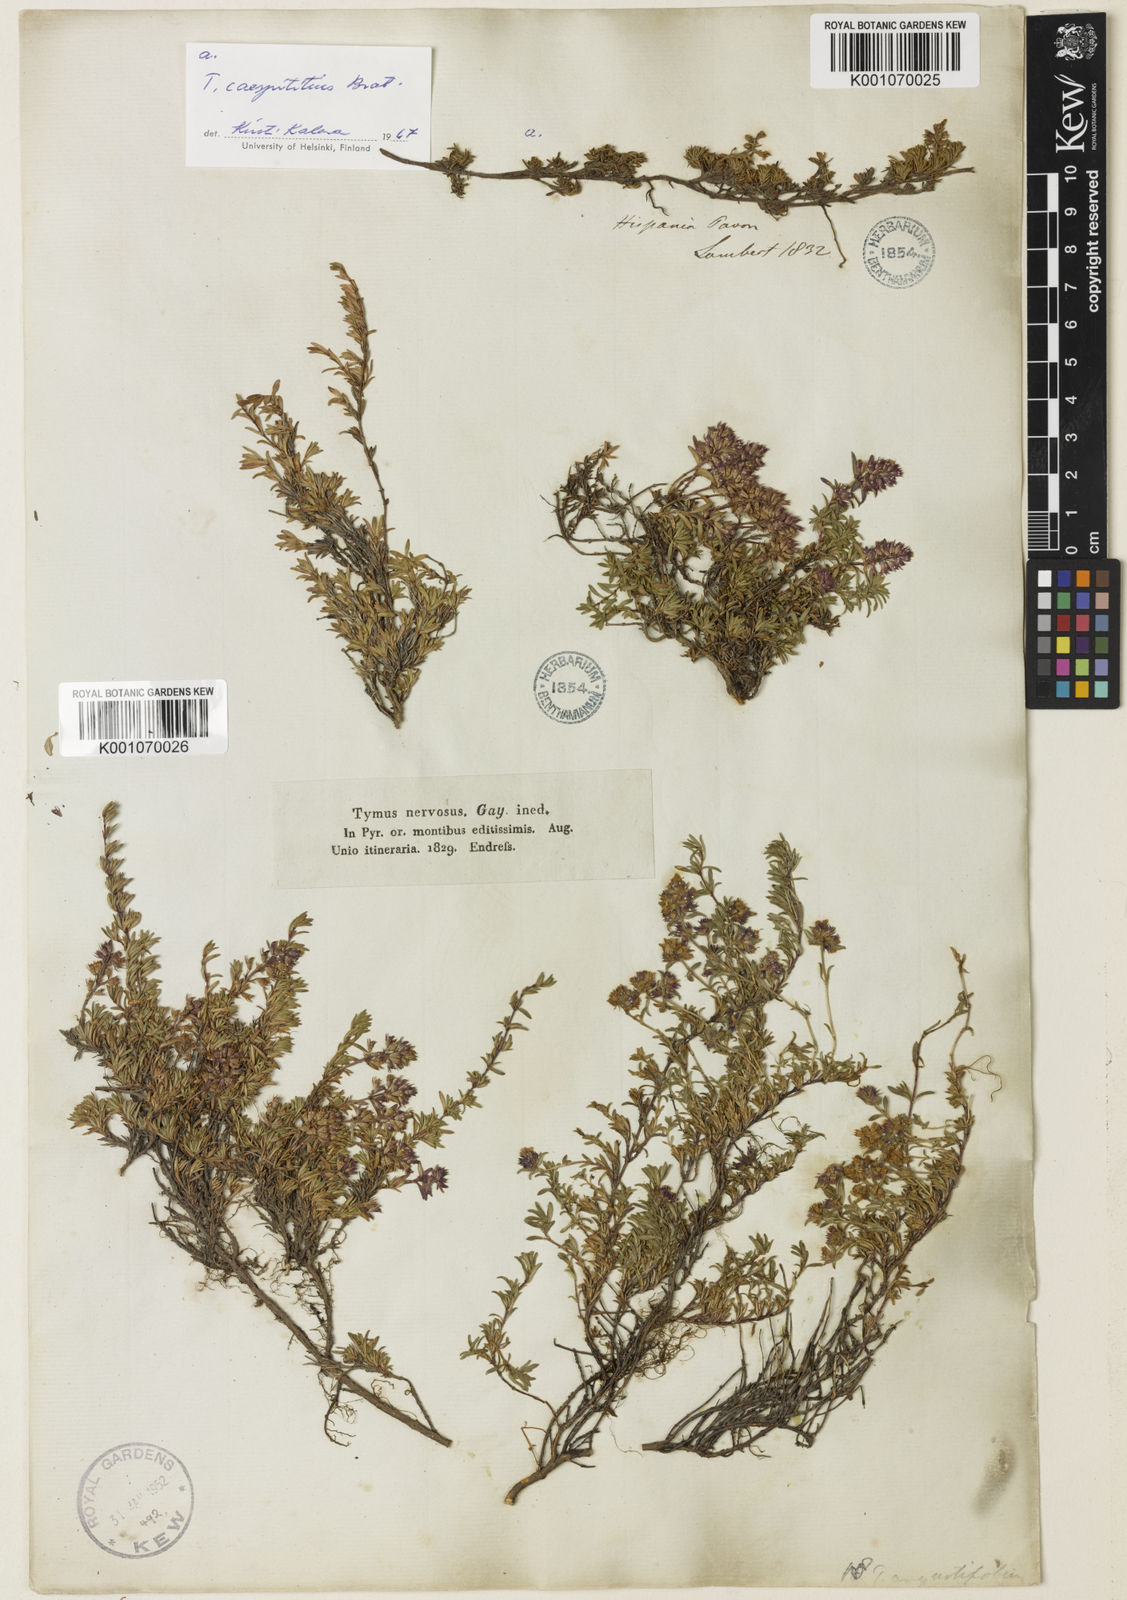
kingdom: Plantae
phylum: Tracheophyta
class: Magnoliopsida
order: Lamiales
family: Lamiaceae
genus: Thymus
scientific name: Thymus nervosus
